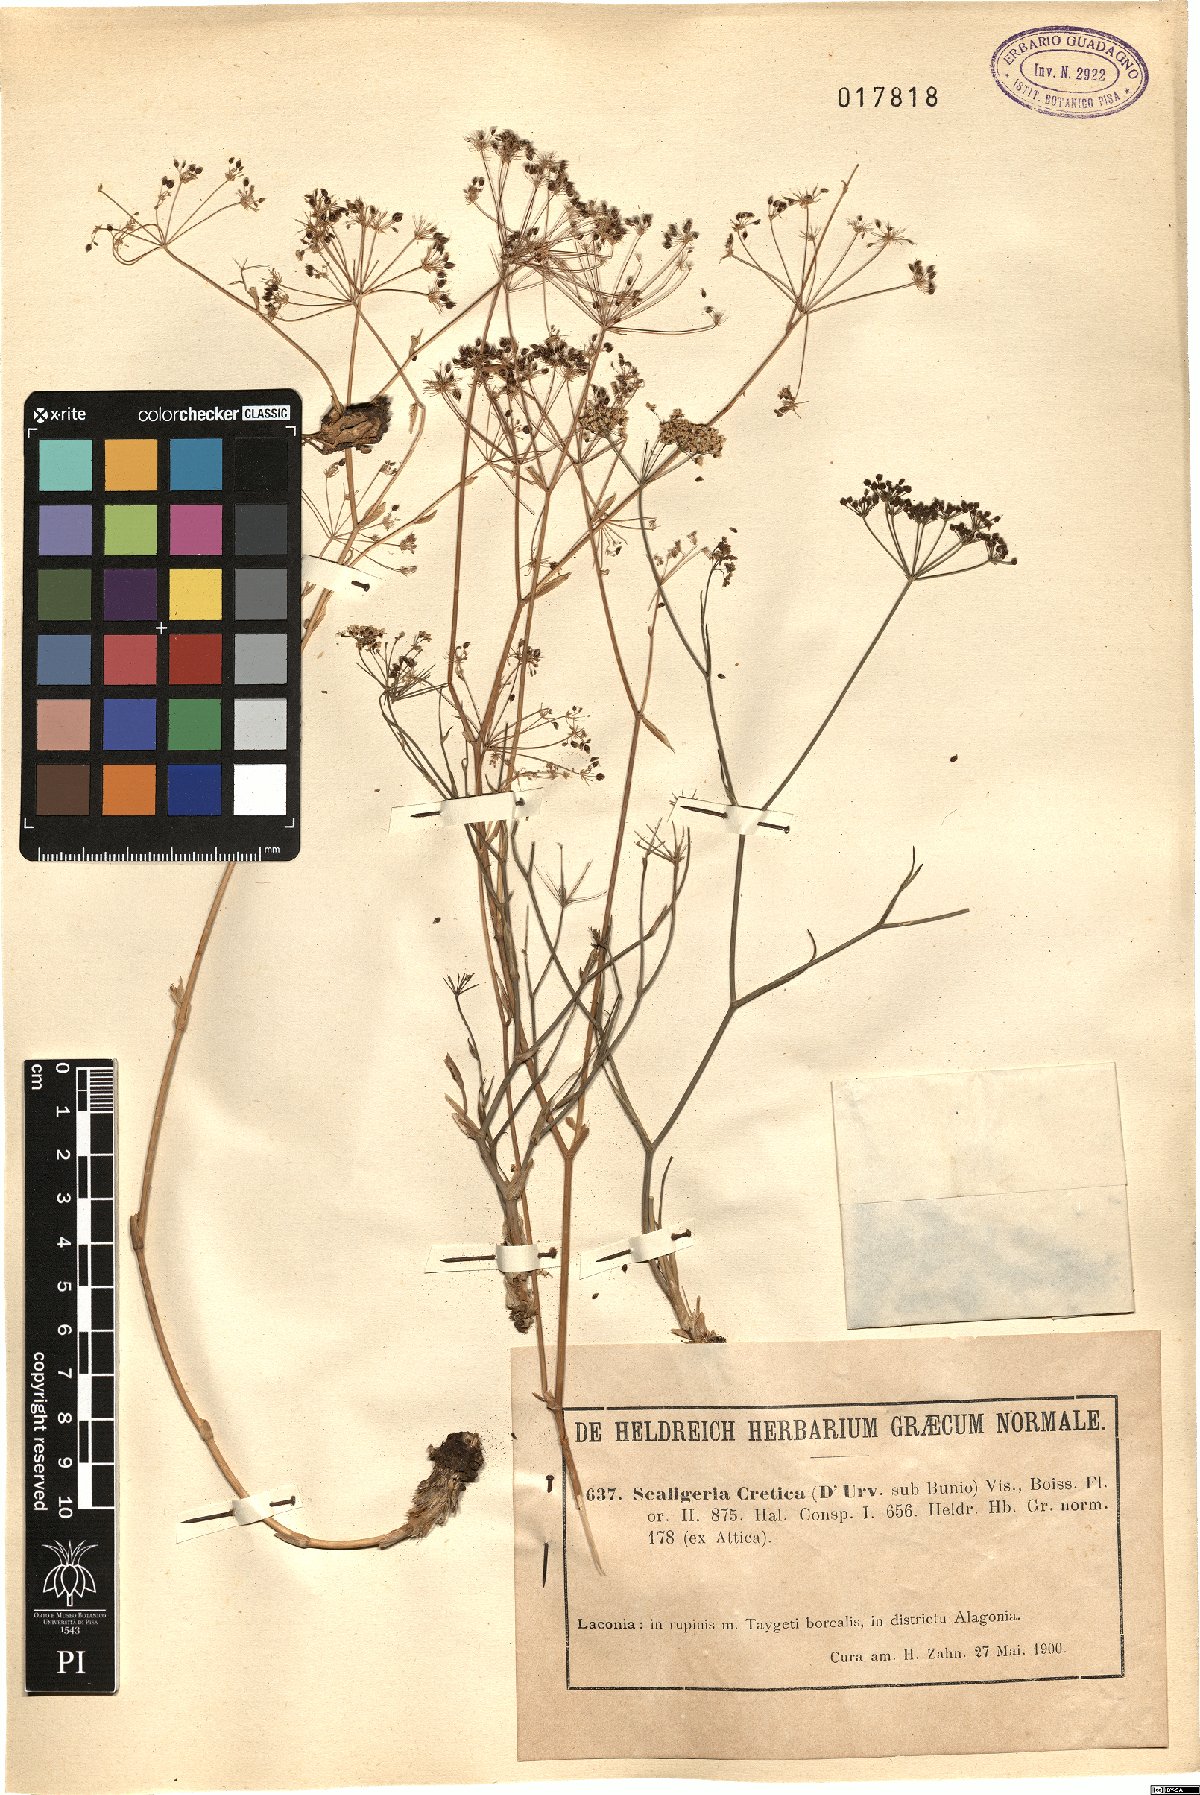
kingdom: Plantae
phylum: Tracheophyta
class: Magnoliopsida
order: Apiales
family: Apiaceae
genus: Scaligeria
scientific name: Scaligeria napiformis
